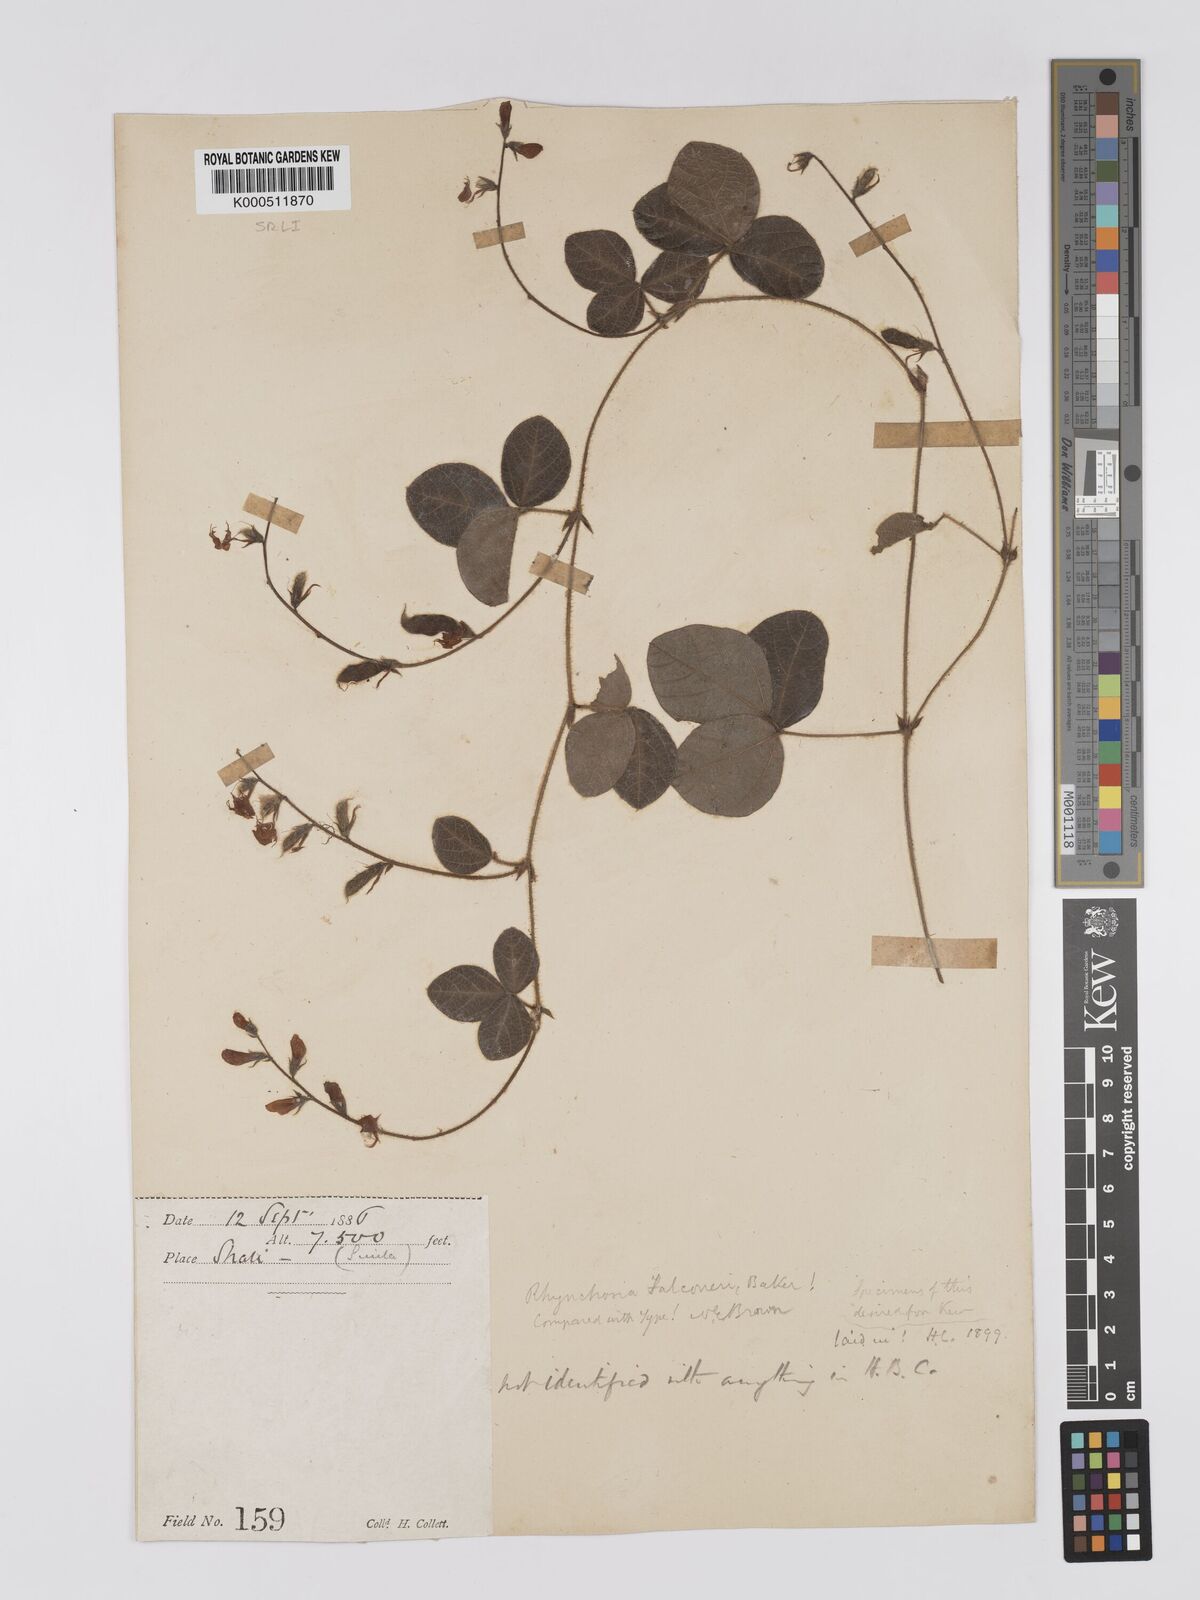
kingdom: Plantae
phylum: Tracheophyta
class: Magnoliopsida
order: Fabales
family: Fabaceae
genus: Rhynchosia
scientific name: Rhynchosia falconeri
